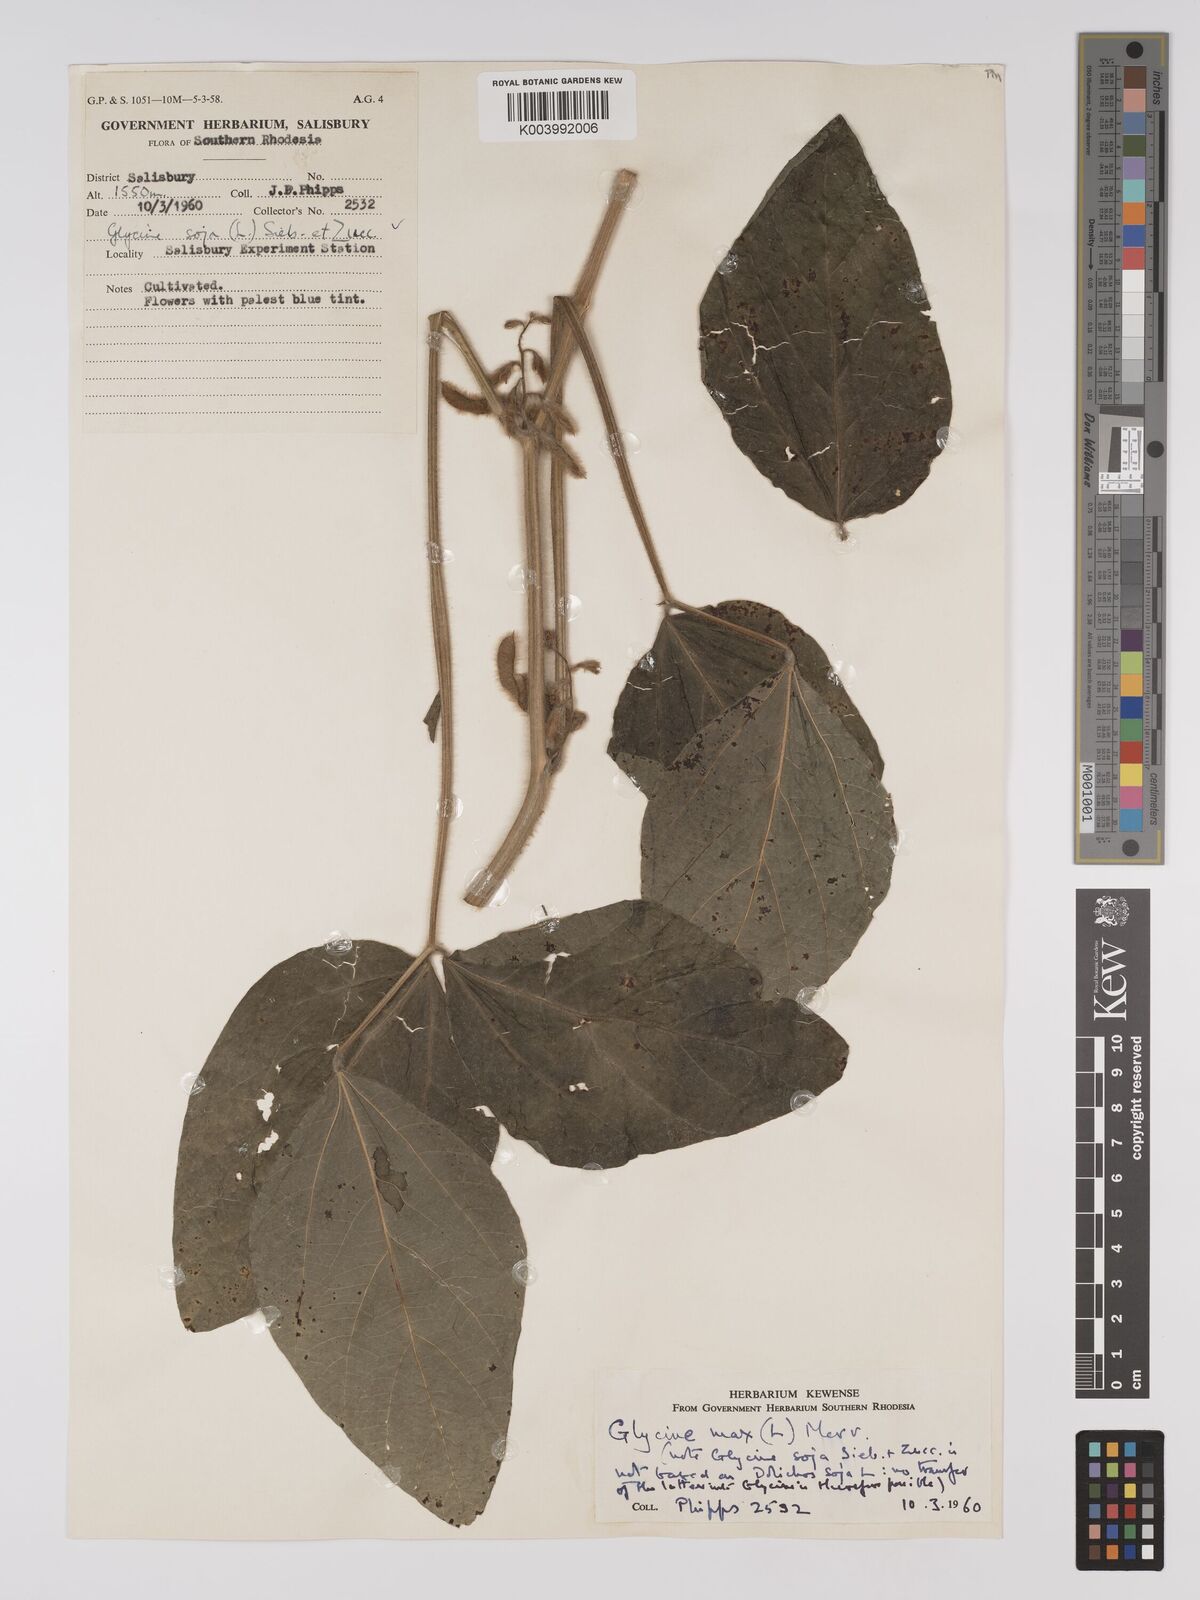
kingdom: Plantae
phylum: Tracheophyta
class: Magnoliopsida
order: Fabales
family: Fabaceae
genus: Glycine
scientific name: Glycine max
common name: Soya-bean
